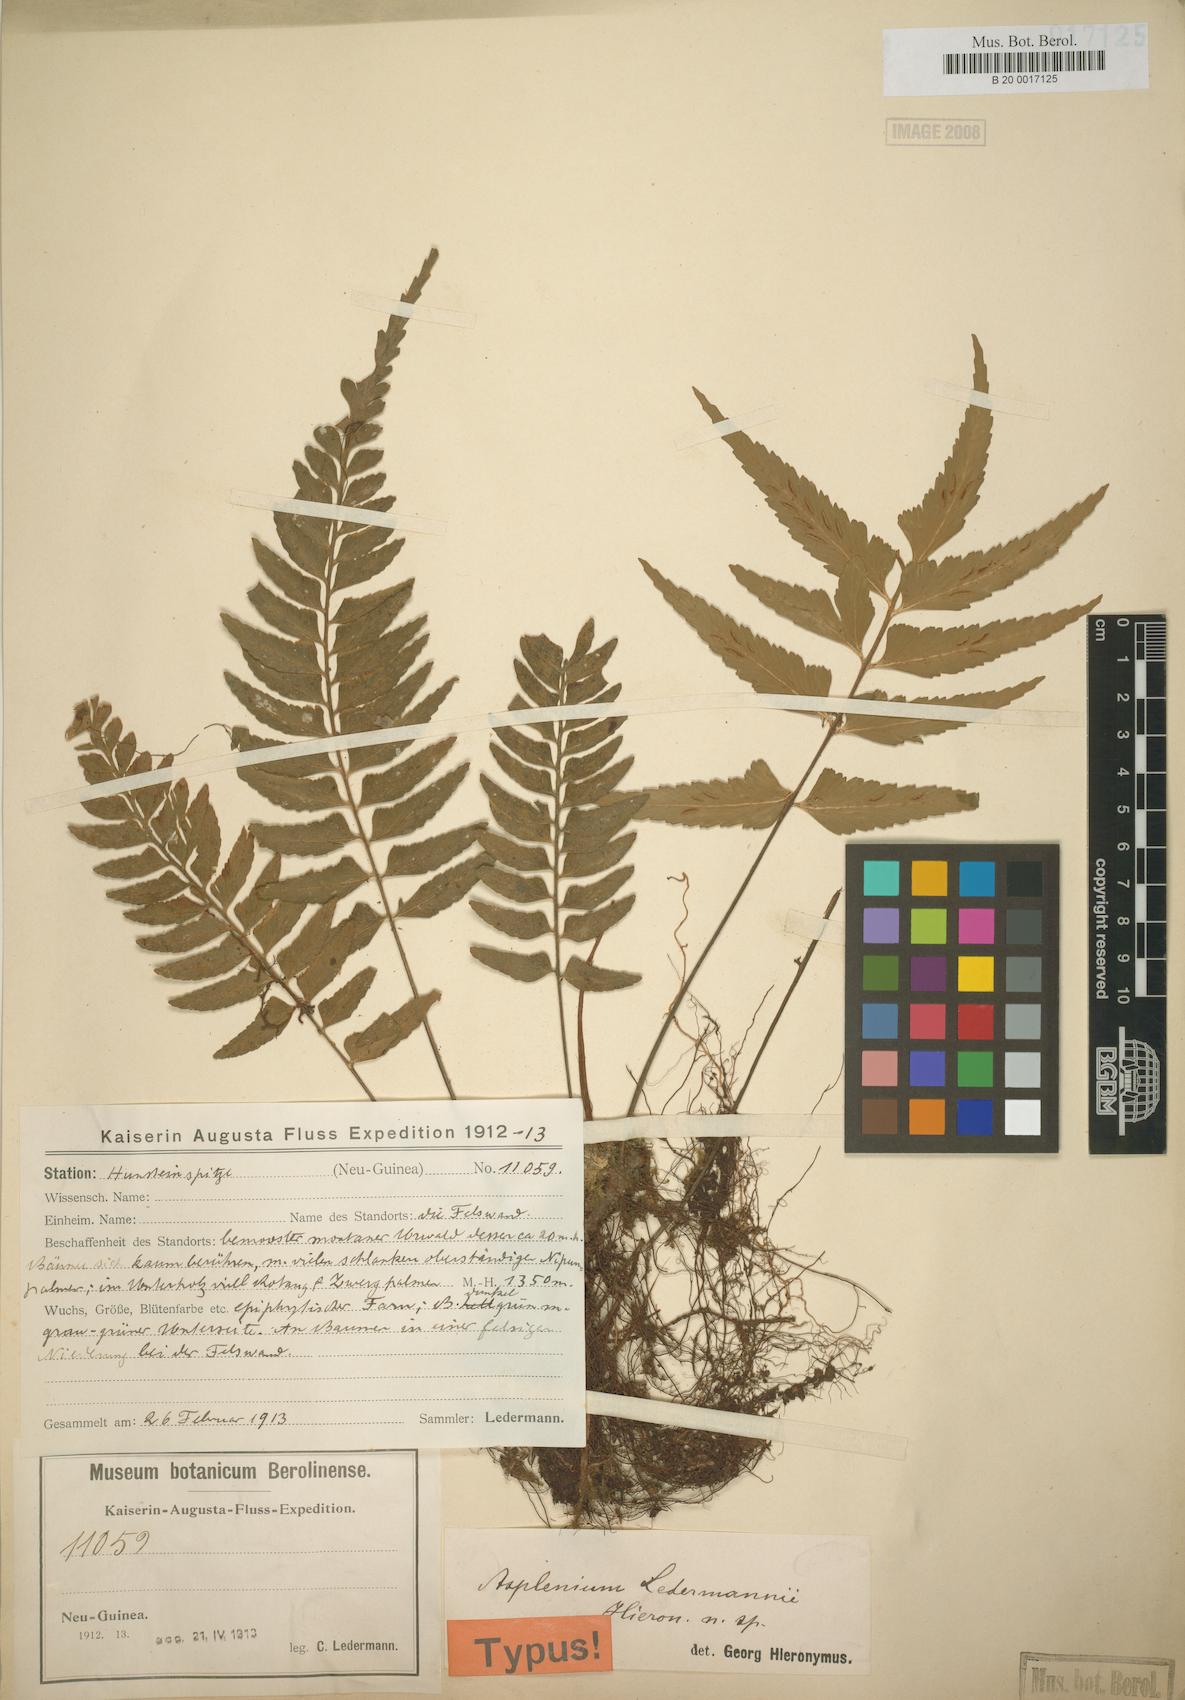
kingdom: Plantae
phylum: Tracheophyta
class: Polypodiopsida
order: Polypodiales
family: Aspleniaceae
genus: Asplenium
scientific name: Asplenium lobulatum
